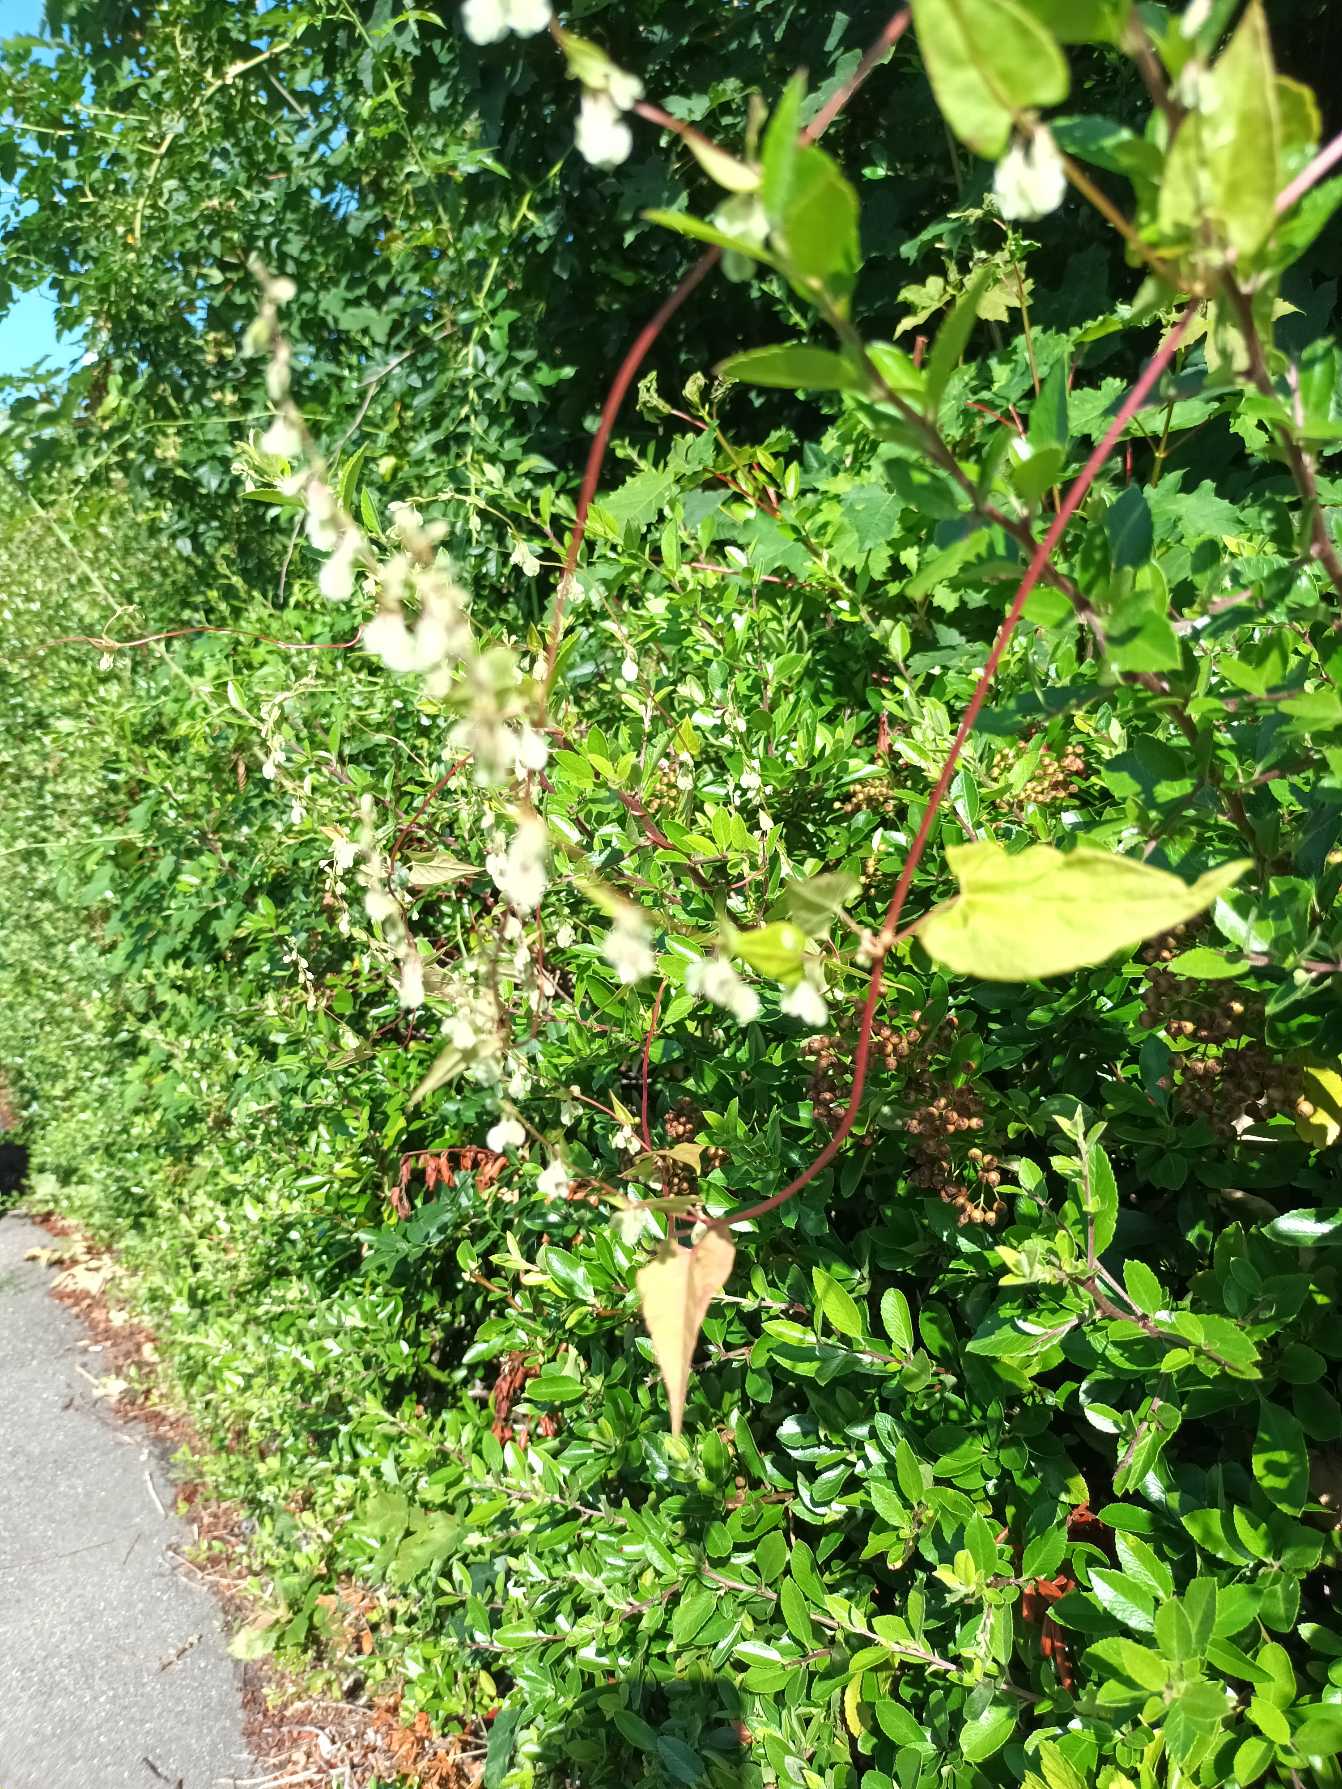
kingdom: Plantae
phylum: Tracheophyta
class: Magnoliopsida
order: Caryophyllales
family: Polygonaceae
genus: Fallopia
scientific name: Fallopia dumetorum
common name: Vinge-pileurt
